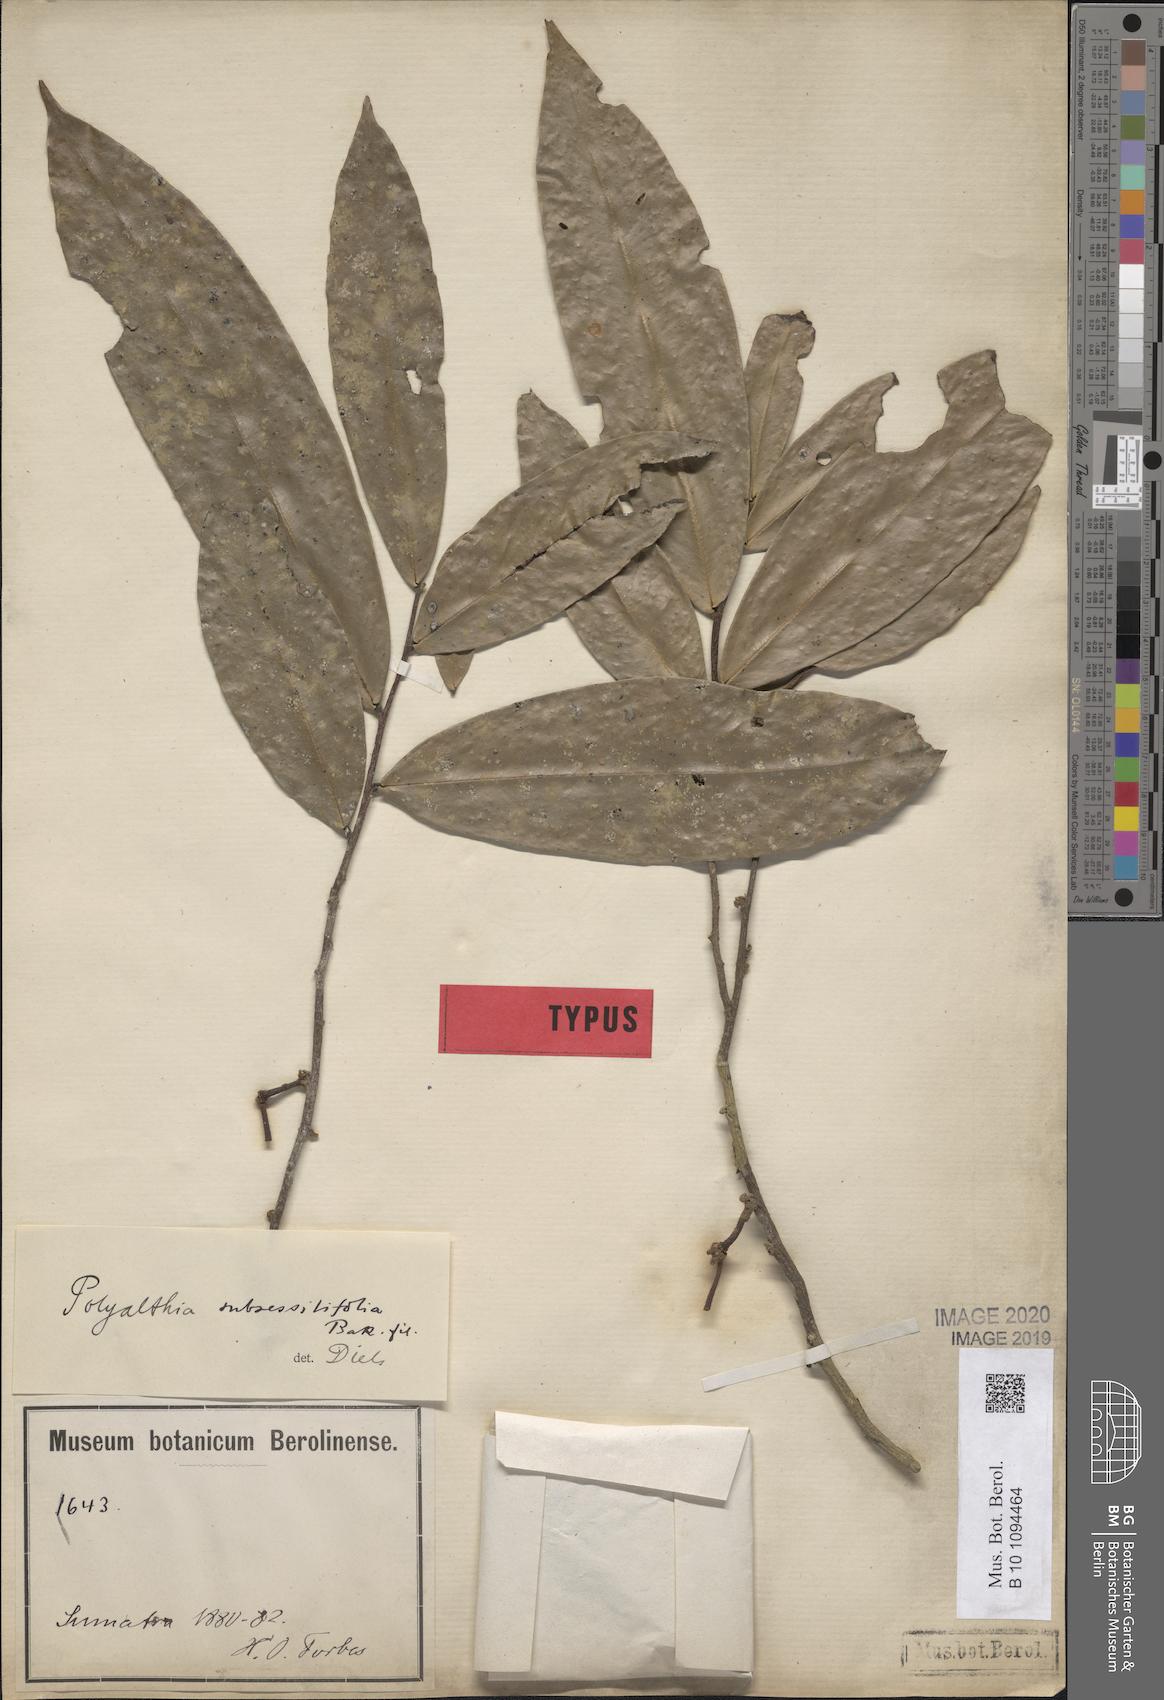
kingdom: Plantae
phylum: Tracheophyta
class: Magnoliopsida
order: Magnoliales
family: Annonaceae
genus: Polyalthia
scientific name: Polyalthia obliqua
